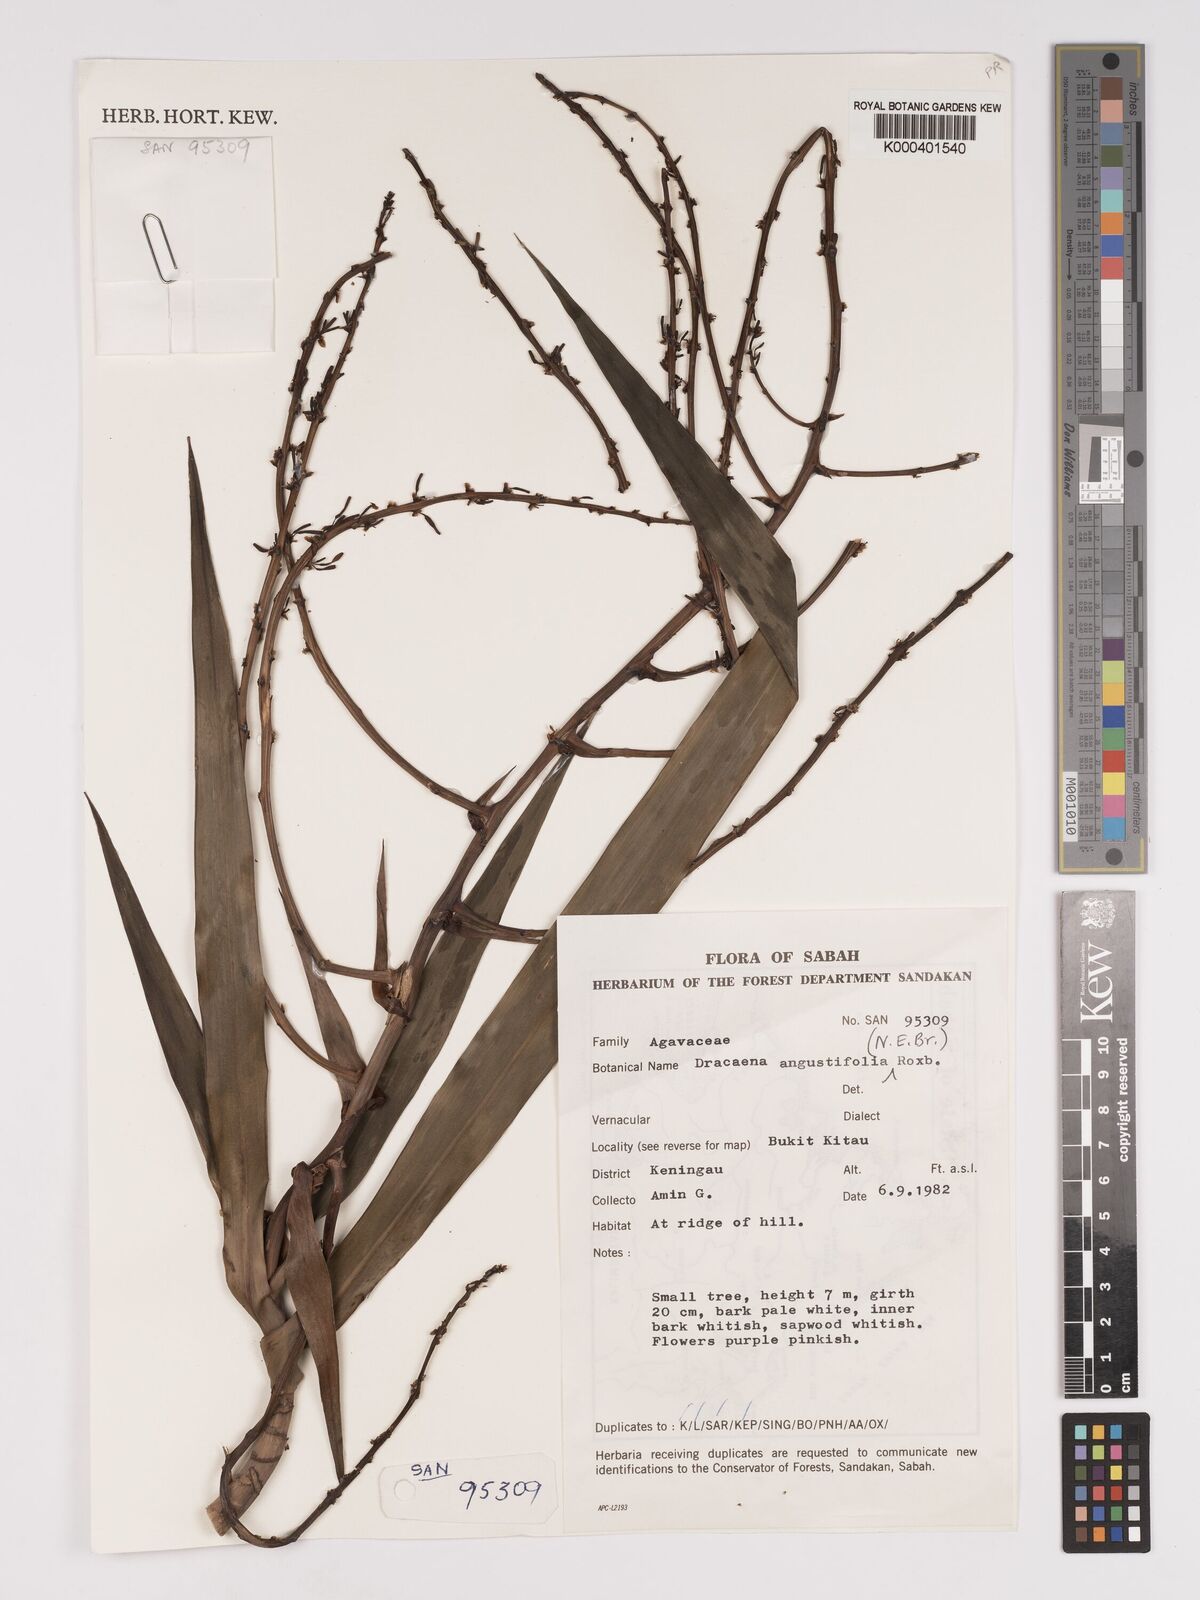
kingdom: Plantae
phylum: Tracheophyta
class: Liliopsida
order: Asparagales
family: Asparagaceae
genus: Dracaena
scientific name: Dracaena angustifolia
